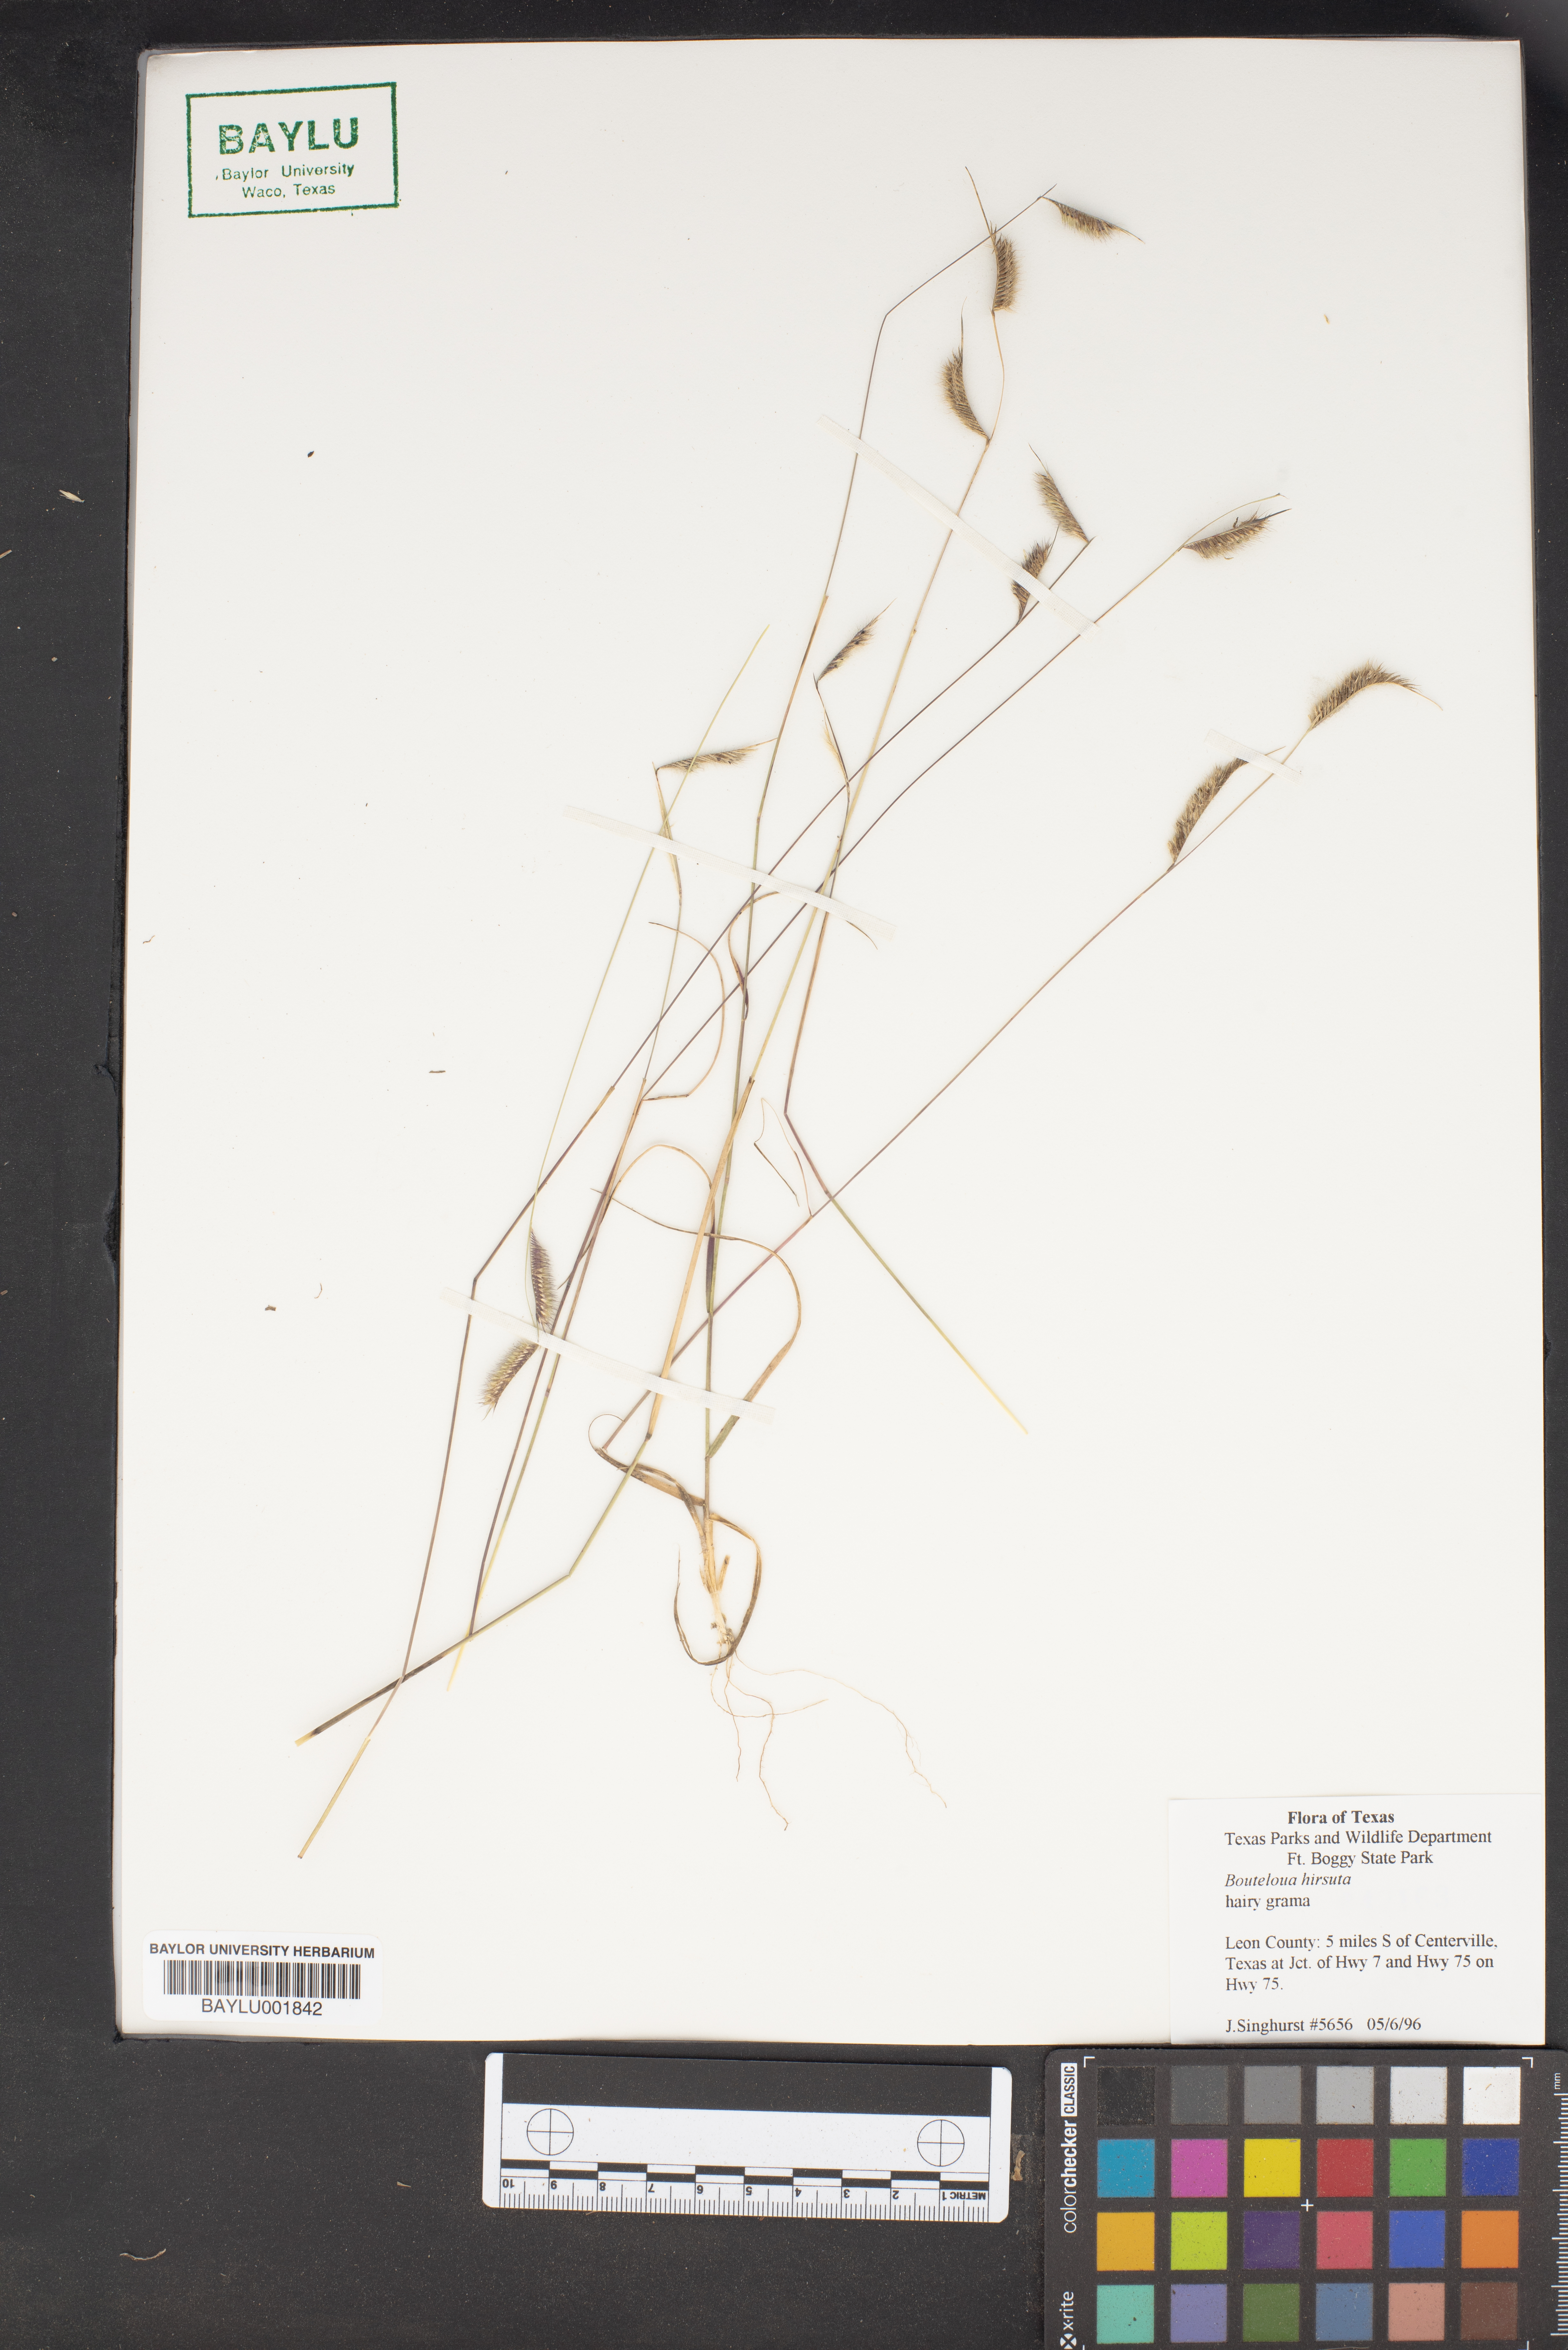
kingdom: Plantae
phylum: Tracheophyta
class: Liliopsida
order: Poales
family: Poaceae
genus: Bouteloua
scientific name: Bouteloua hirsuta
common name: Hairy grama
